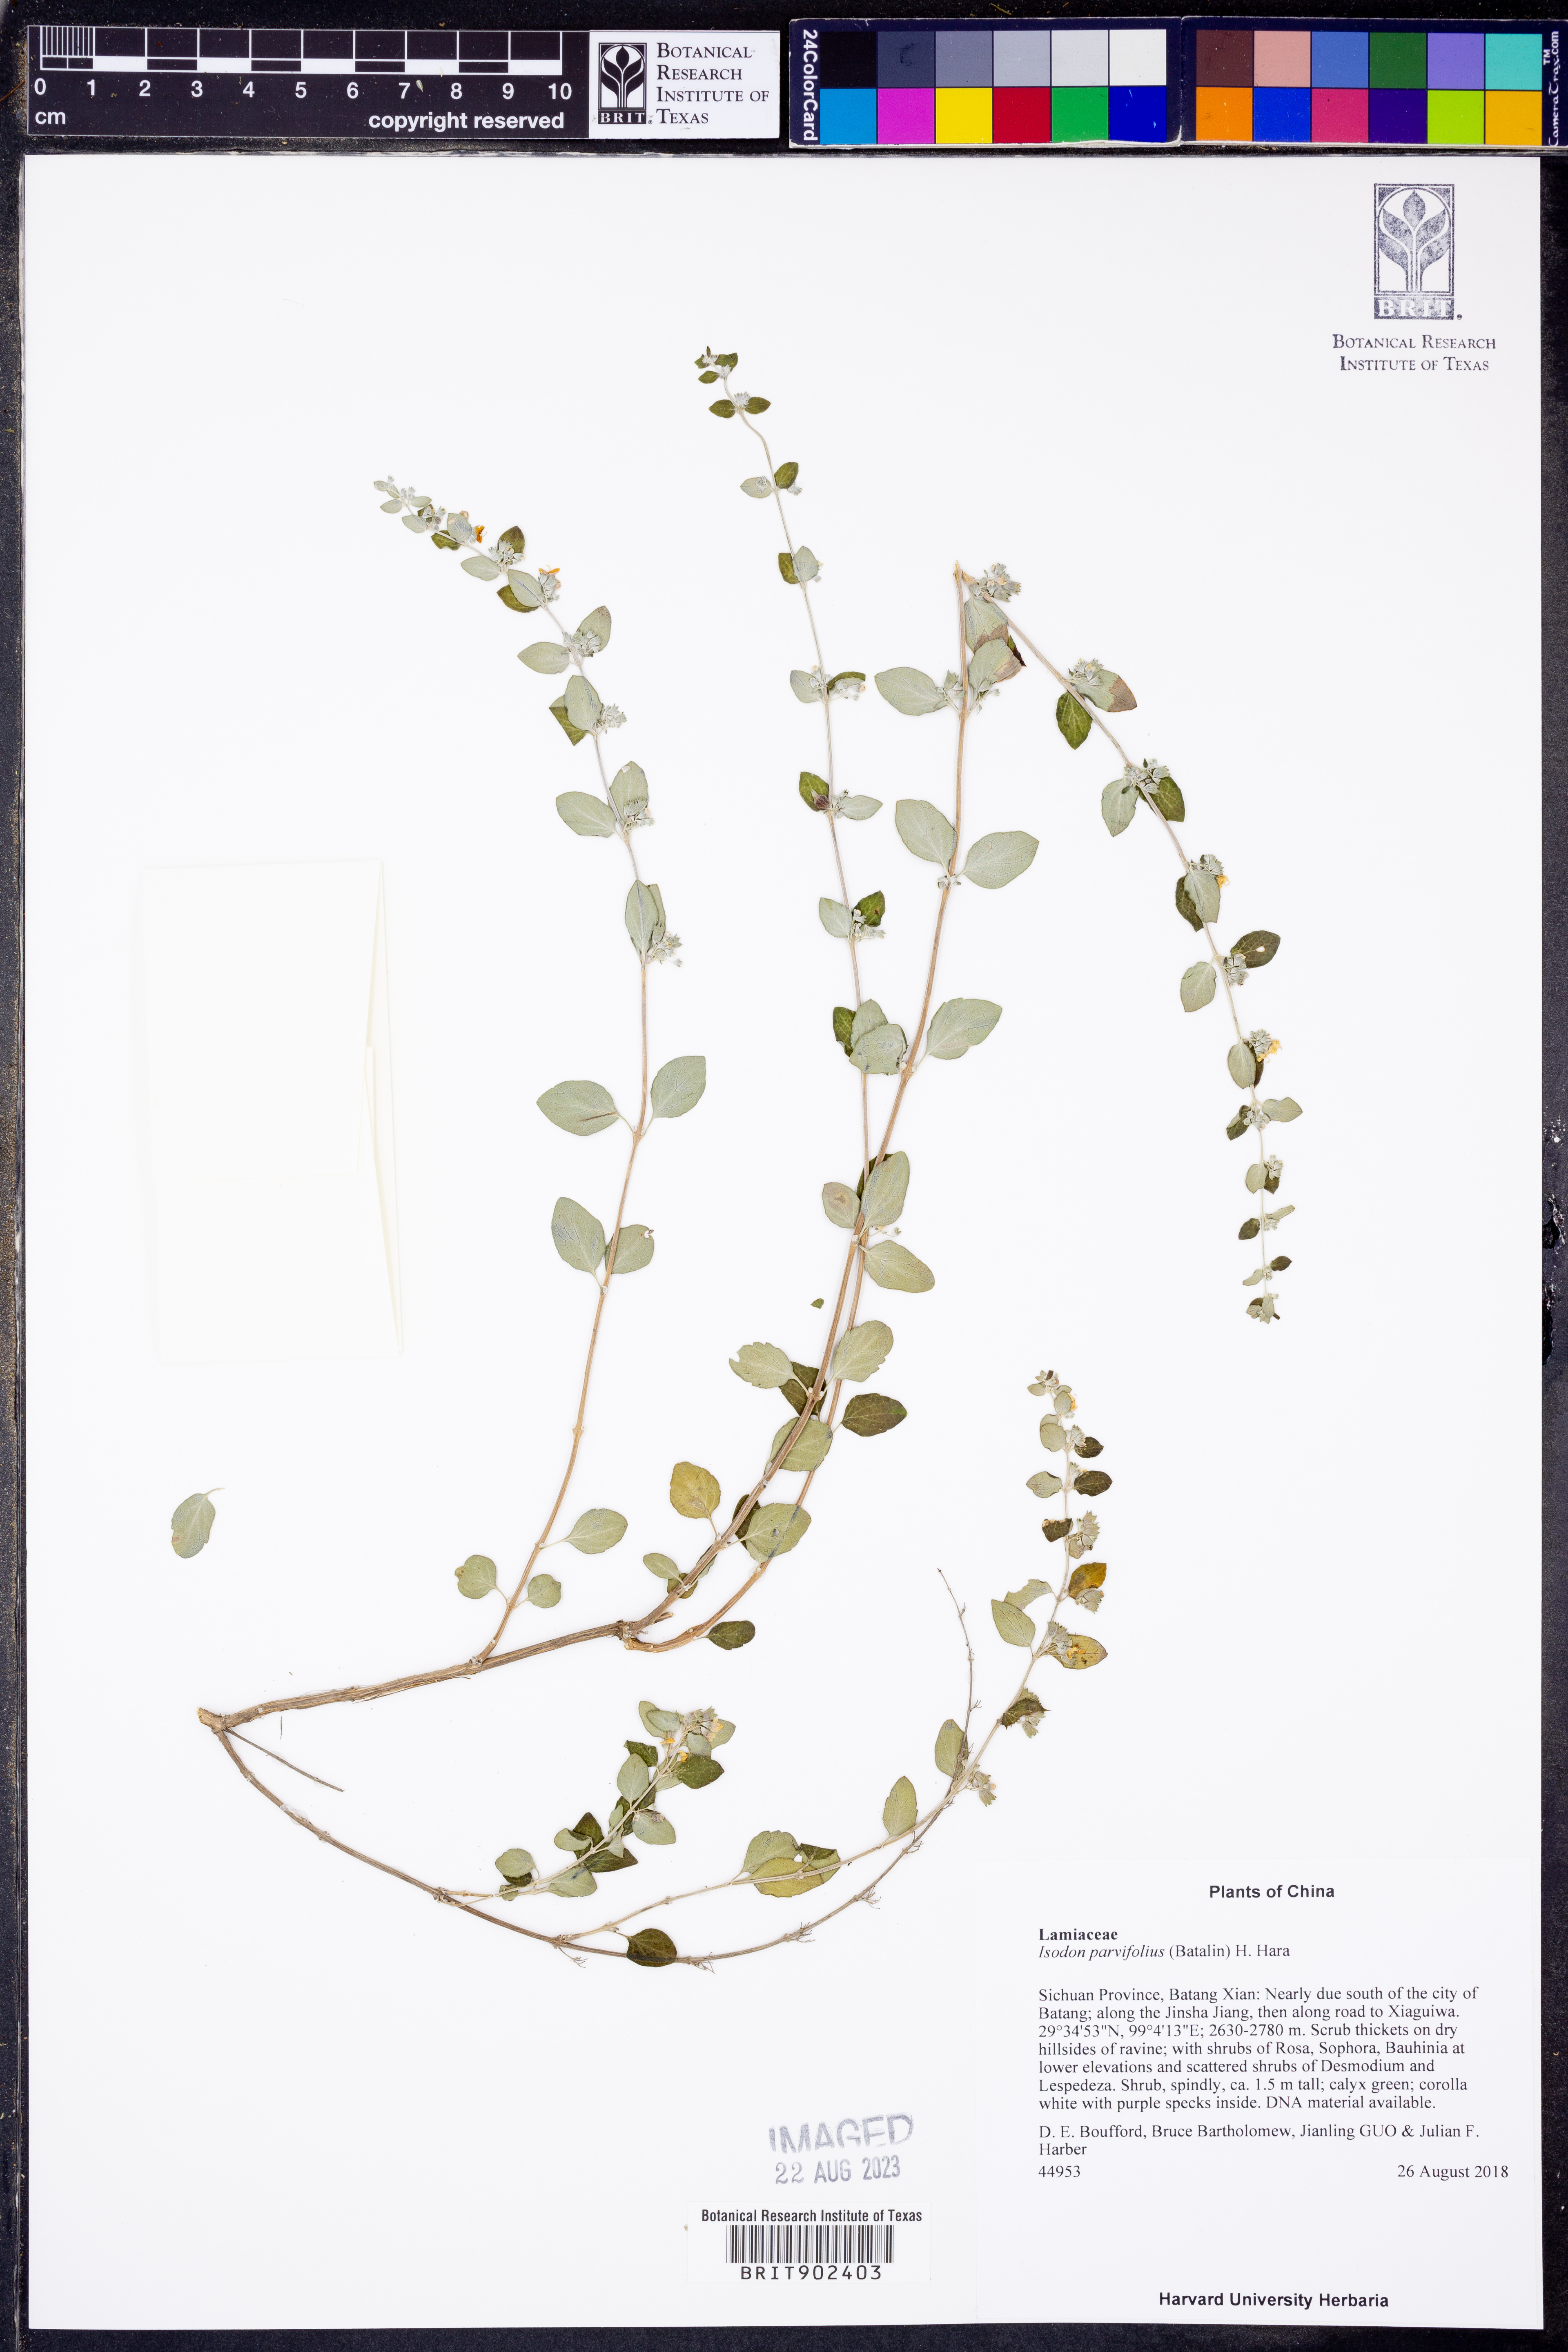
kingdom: Plantae
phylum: Tracheophyta
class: Magnoliopsida
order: Lamiales
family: Lamiaceae
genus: Isodon
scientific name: Isodon
